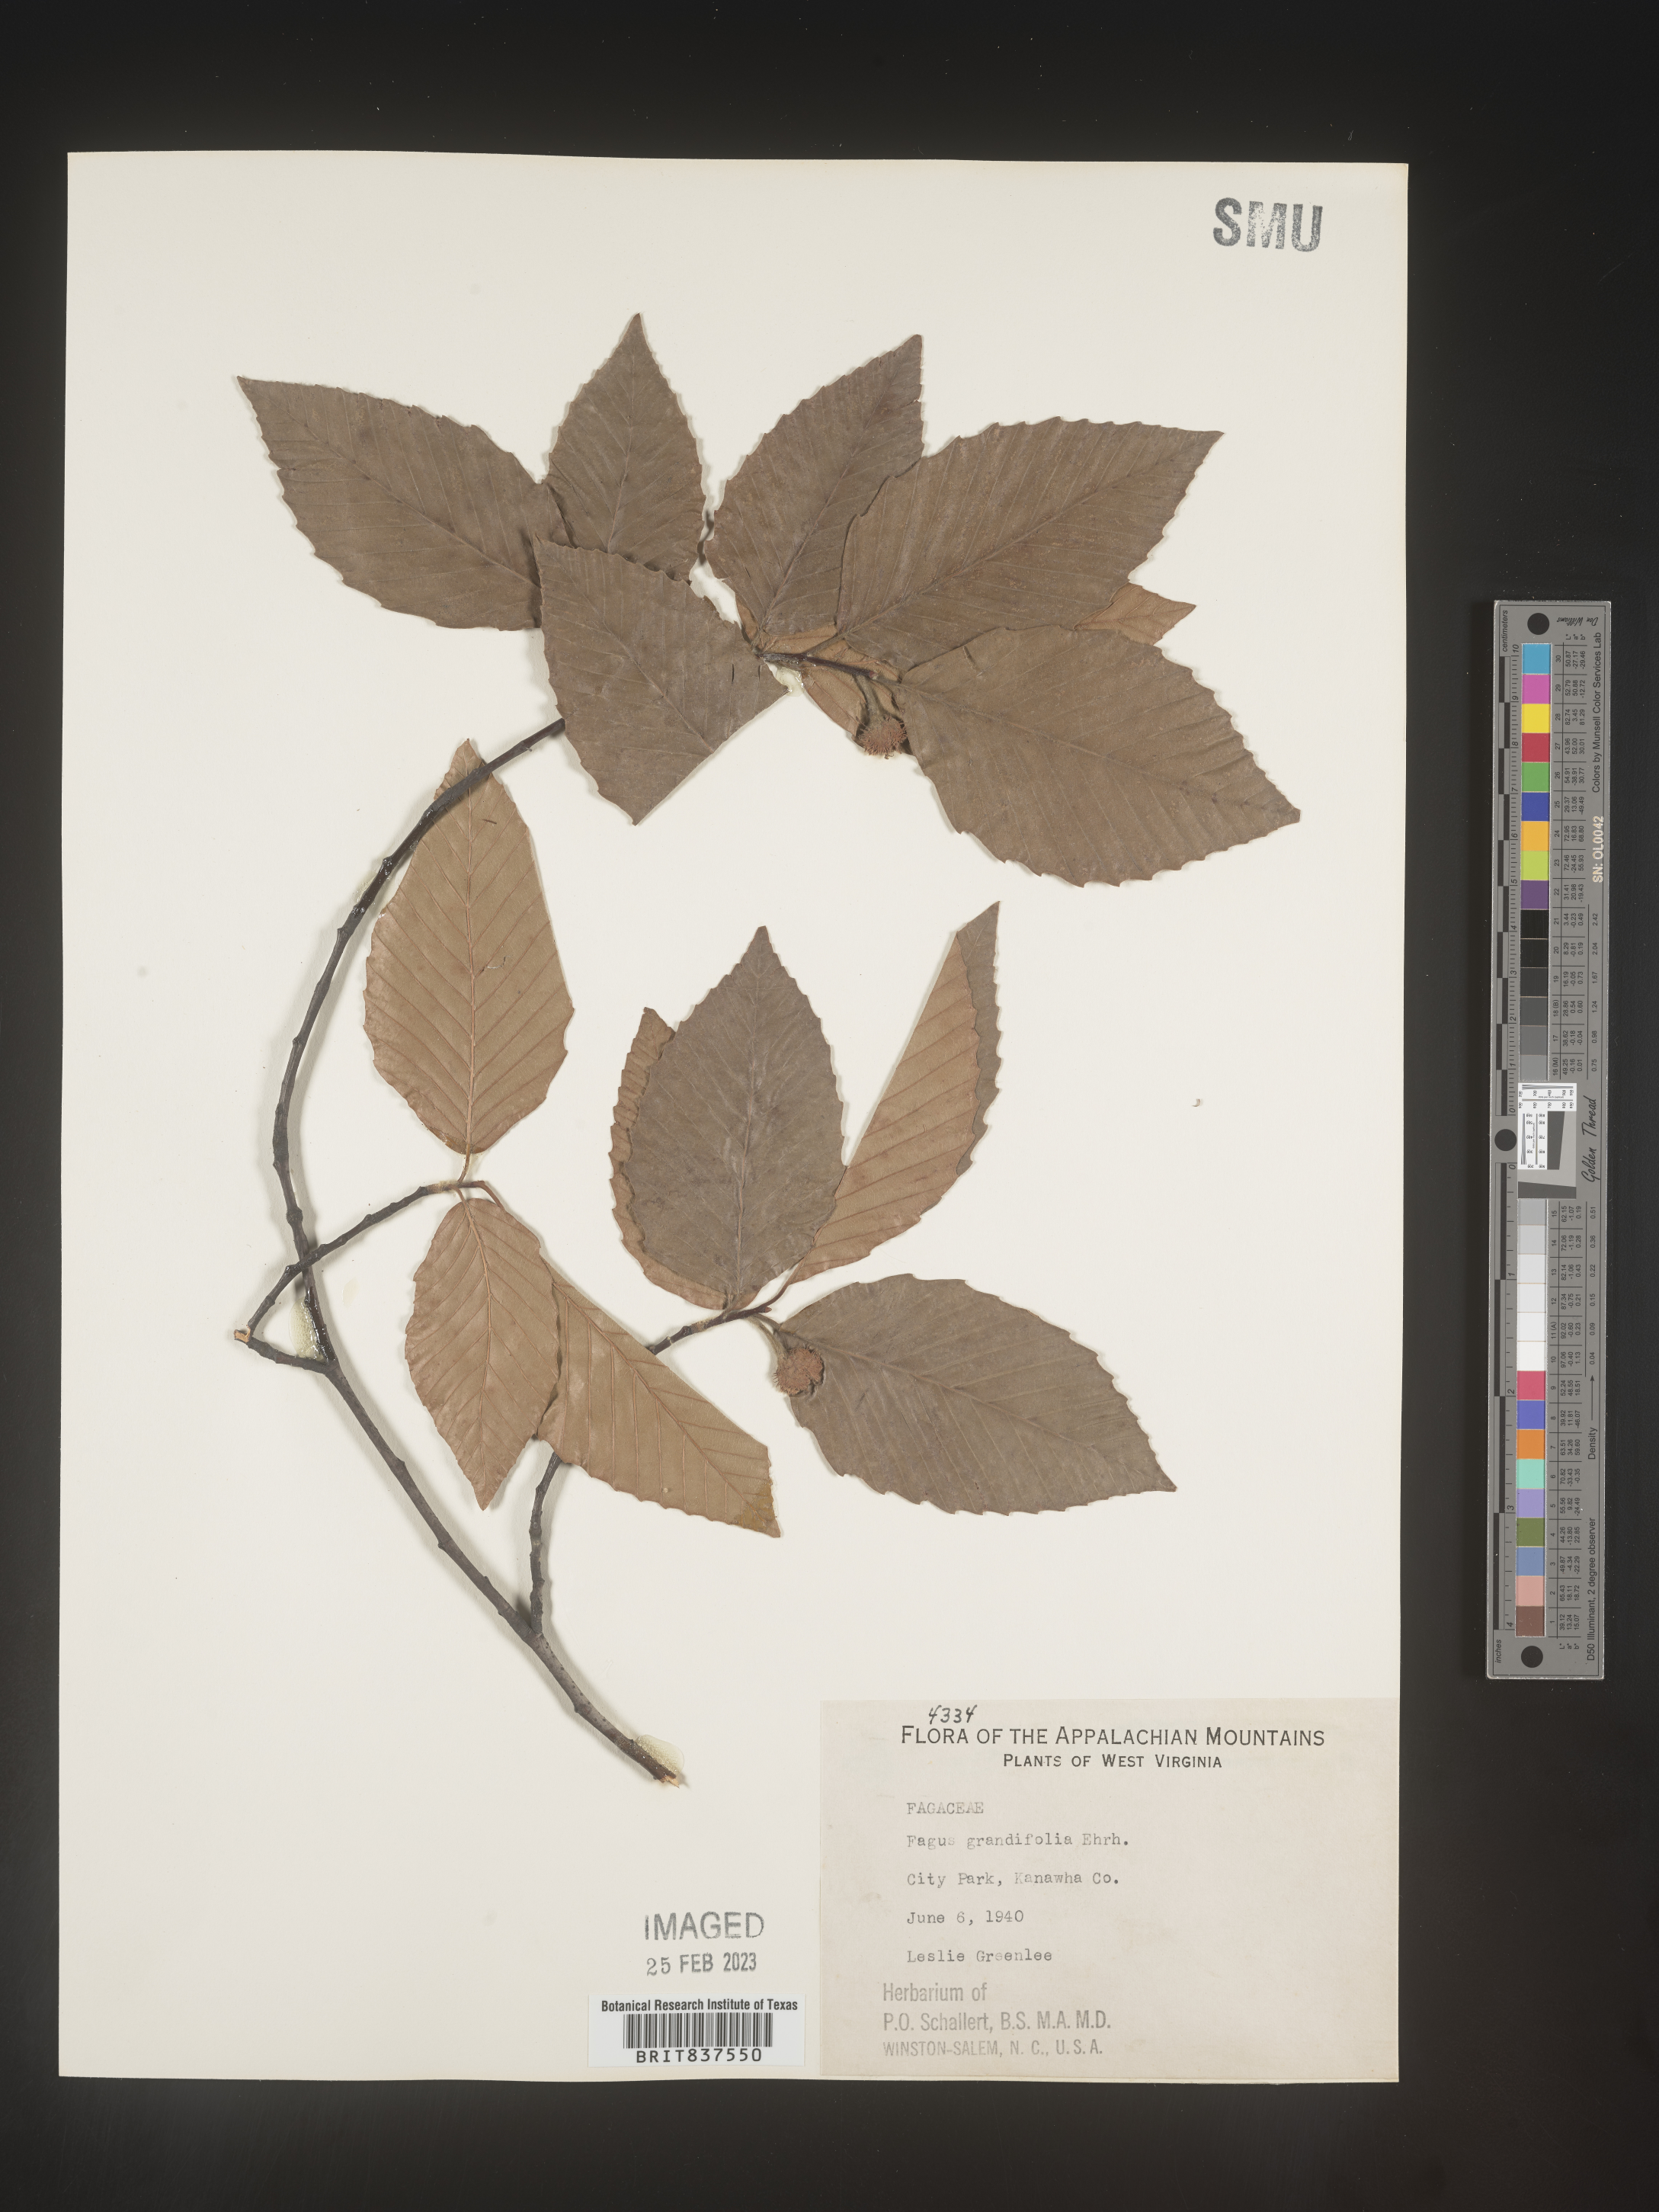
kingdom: Plantae
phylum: Tracheophyta
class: Magnoliopsida
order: Fagales
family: Fagaceae
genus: Fagus
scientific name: Fagus grandifolia
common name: American beech
